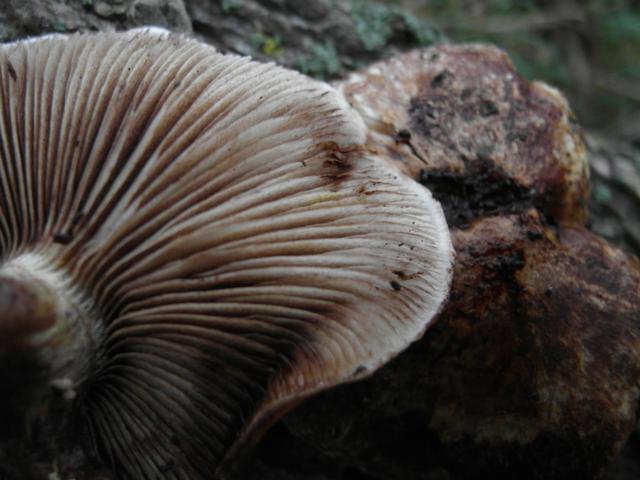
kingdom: Fungi
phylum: Basidiomycota
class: Agaricomycetes
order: Agaricales
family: Strophariaceae
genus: Pholiota
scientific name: Pholiota populnea
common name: poppel-kæmpeskælhat
